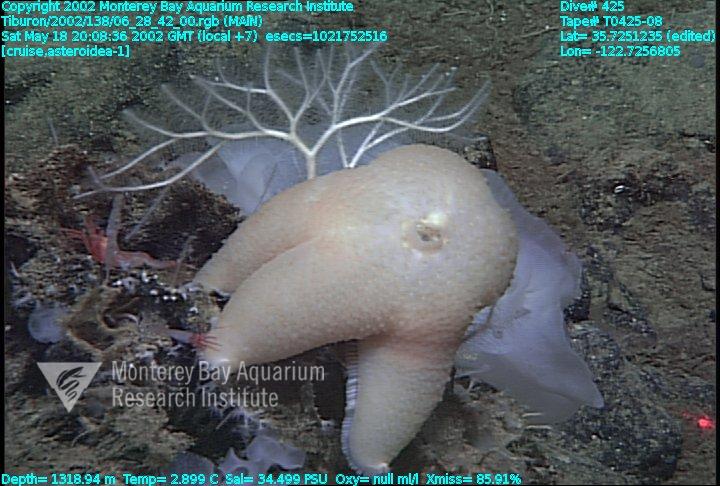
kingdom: Animalia
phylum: Porifera
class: Hexactinellida
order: Sceptrulophora
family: Farreidae
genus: Farrea
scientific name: Farrea occa
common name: Reversed glass sponge
